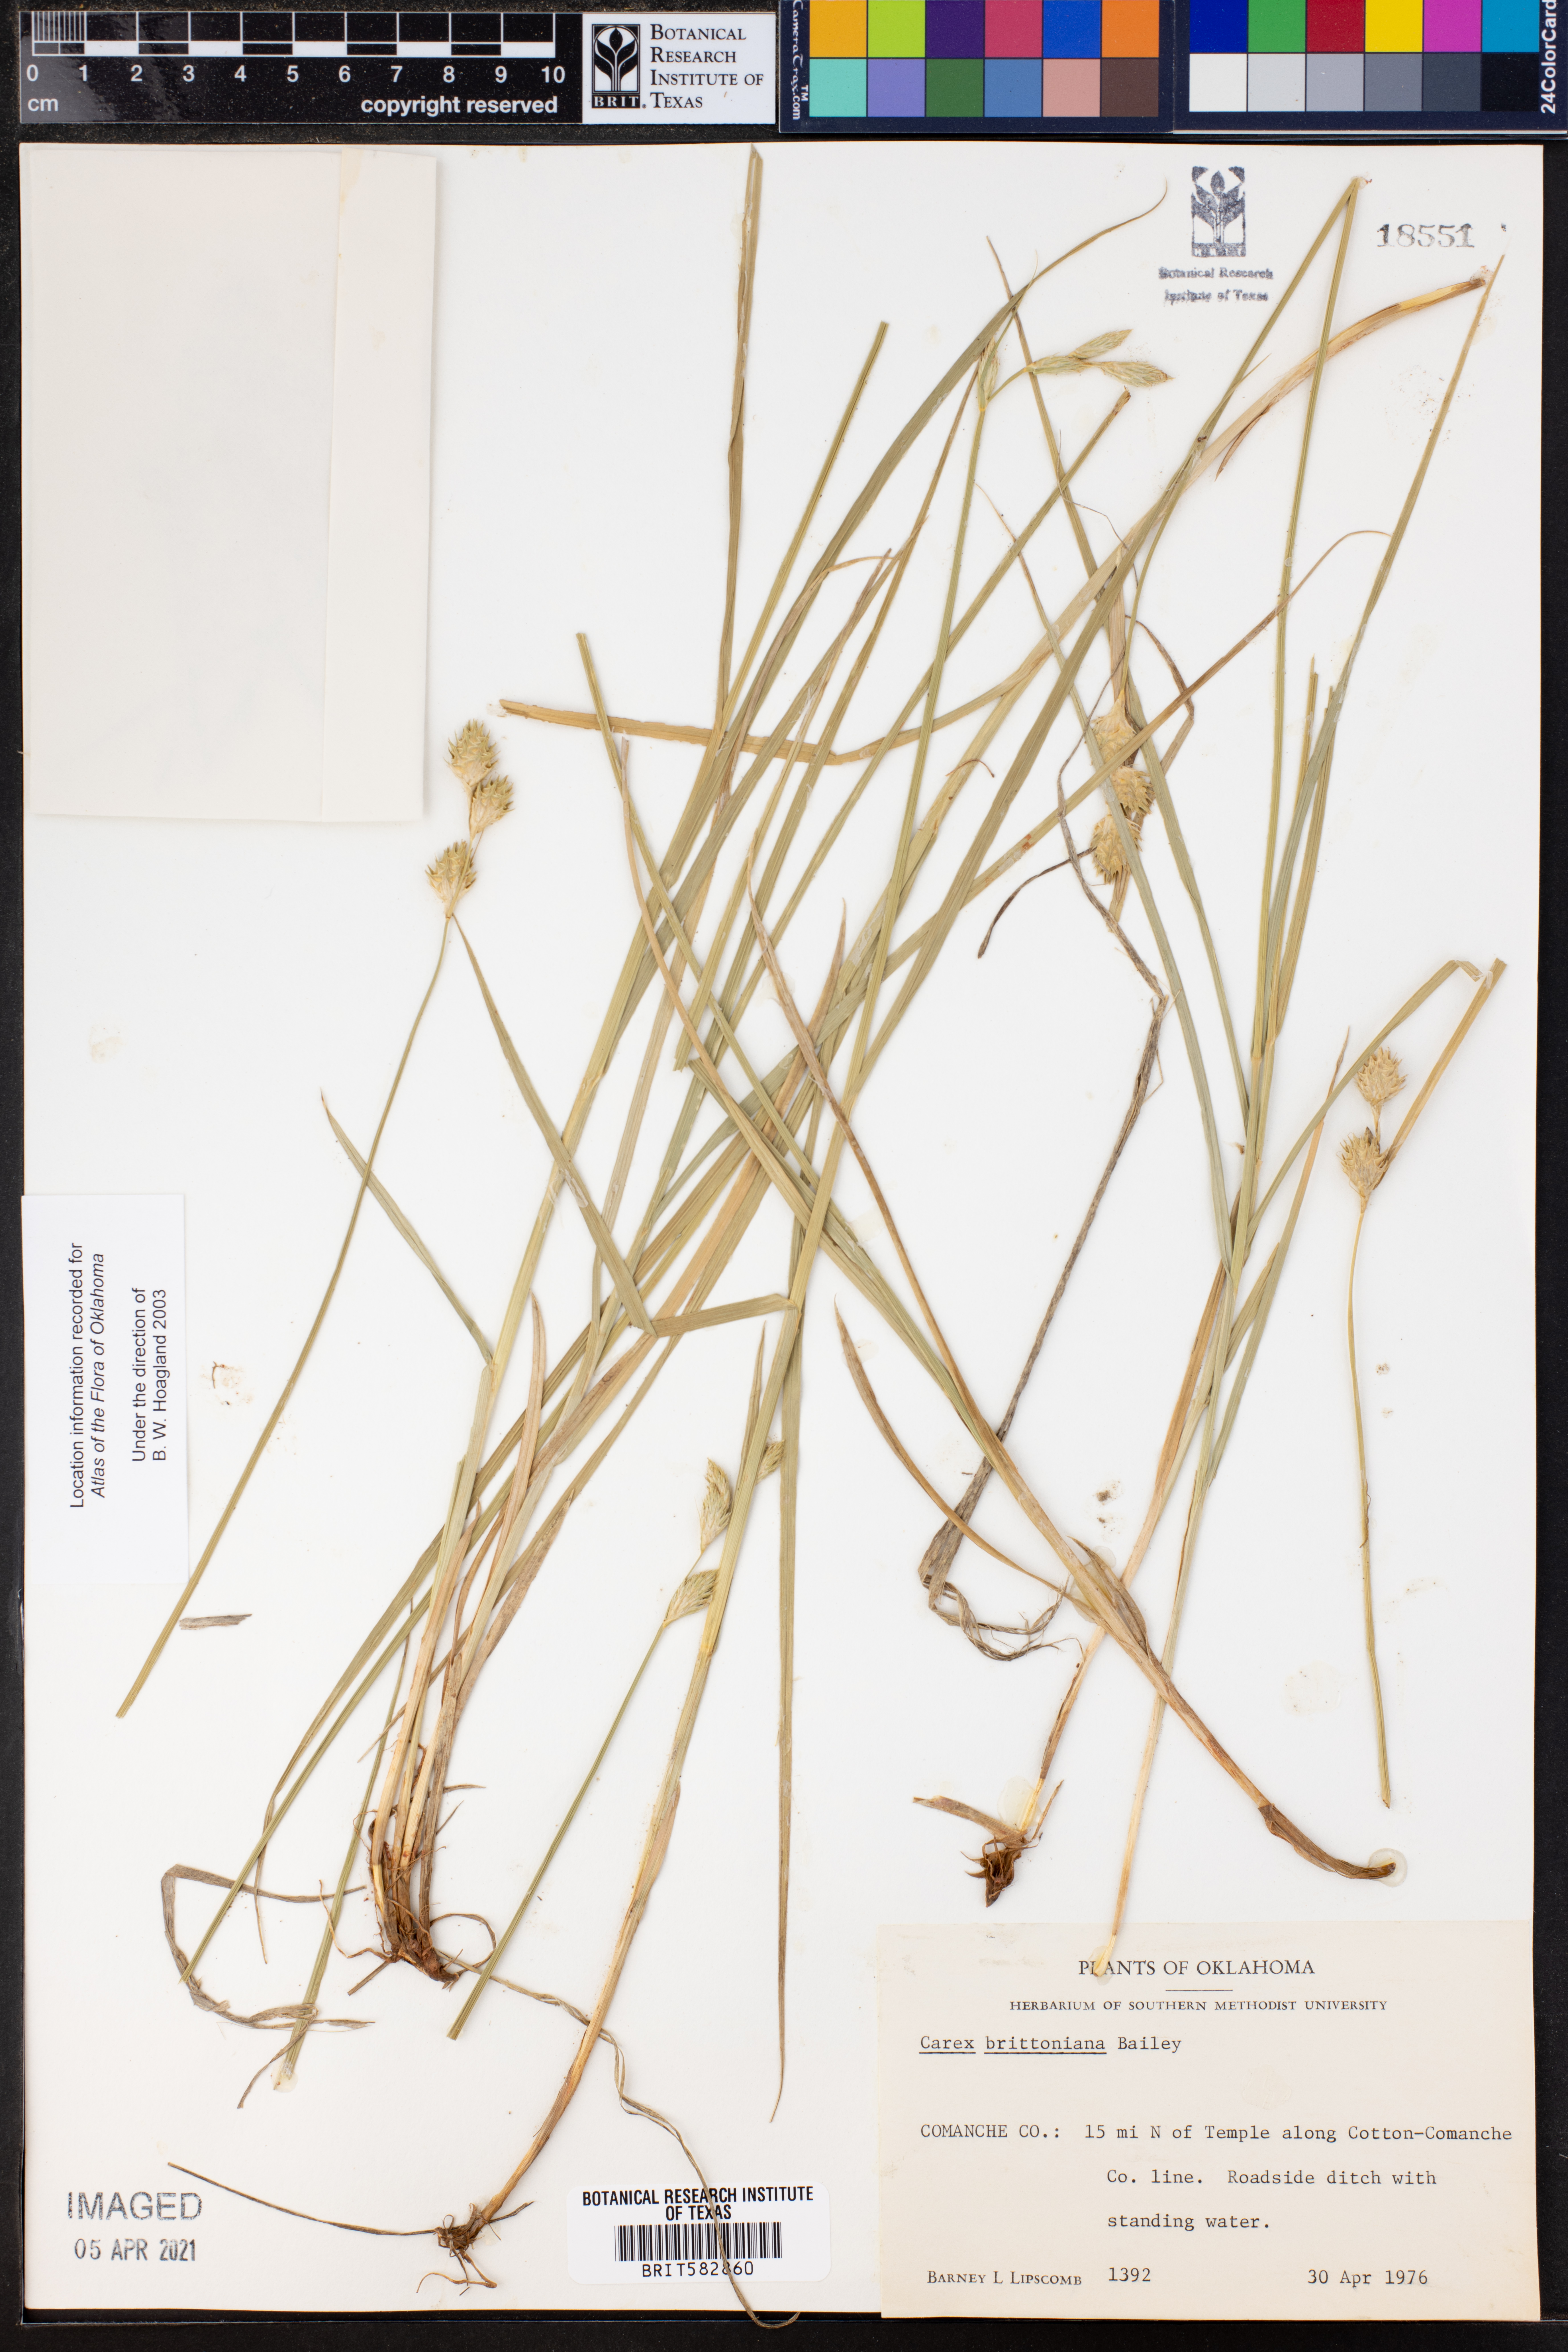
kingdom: Plantae
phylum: Tracheophyta
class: Liliopsida
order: Poales
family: Cyperaceae
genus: Carex
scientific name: Carex tetrastachya
